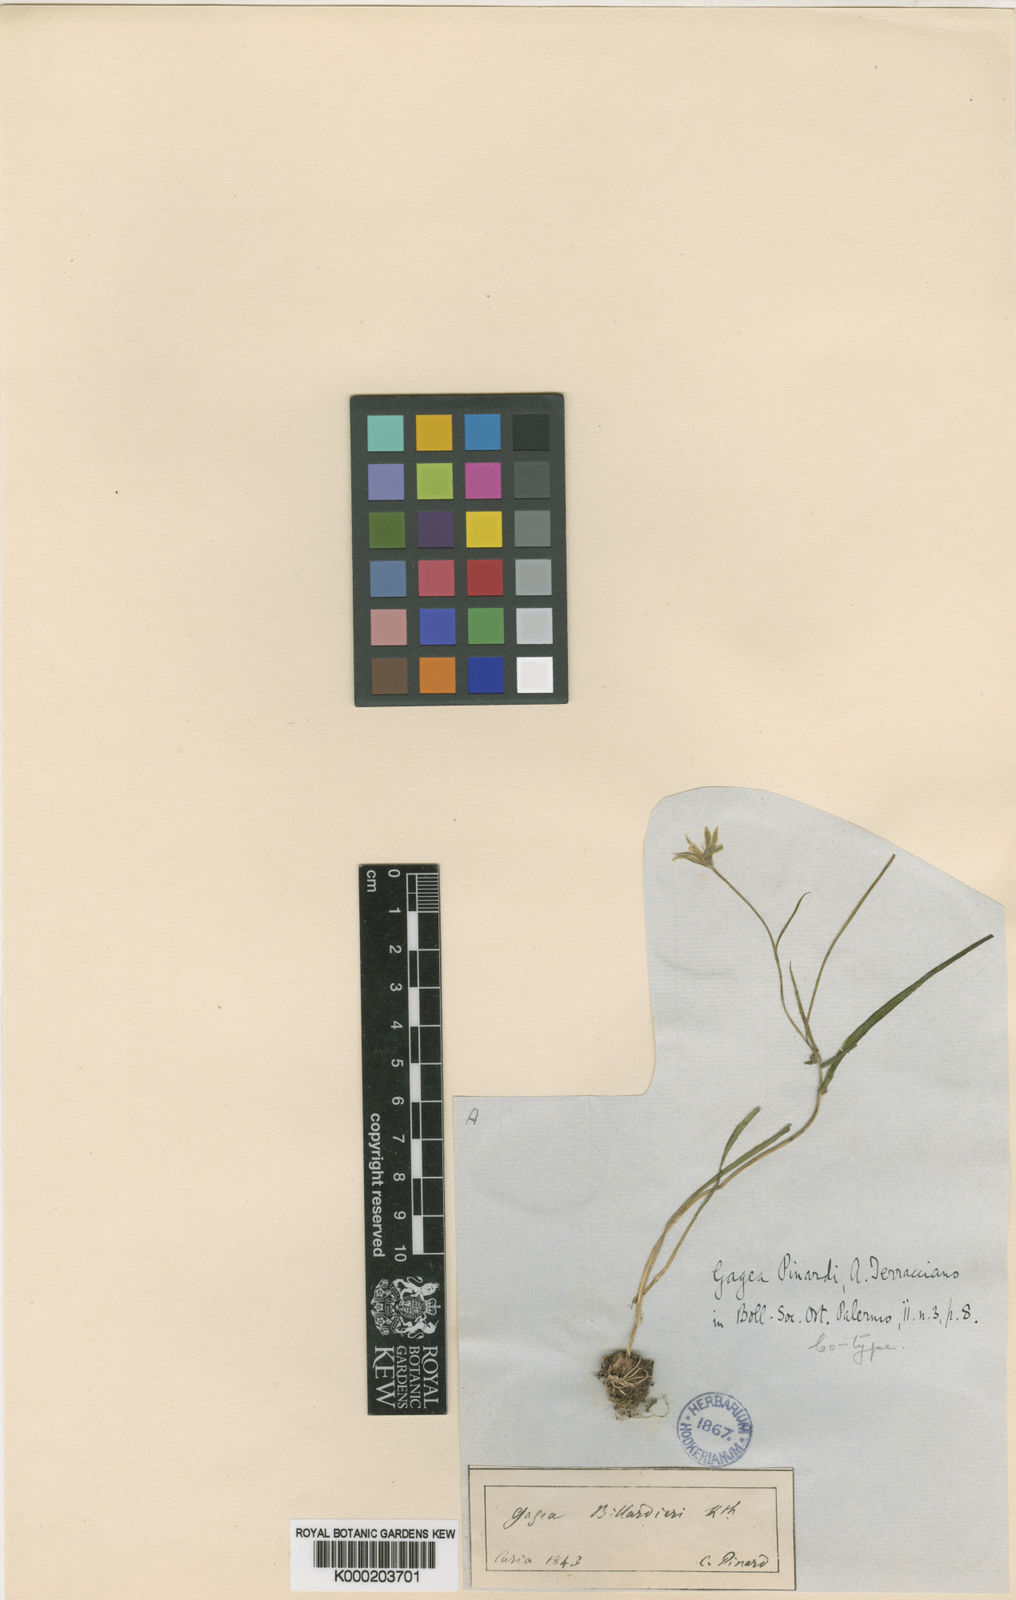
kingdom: Plantae
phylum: Tracheophyta
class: Liliopsida
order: Liliales
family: Liliaceae
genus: Gagea
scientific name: Gagea dubia
